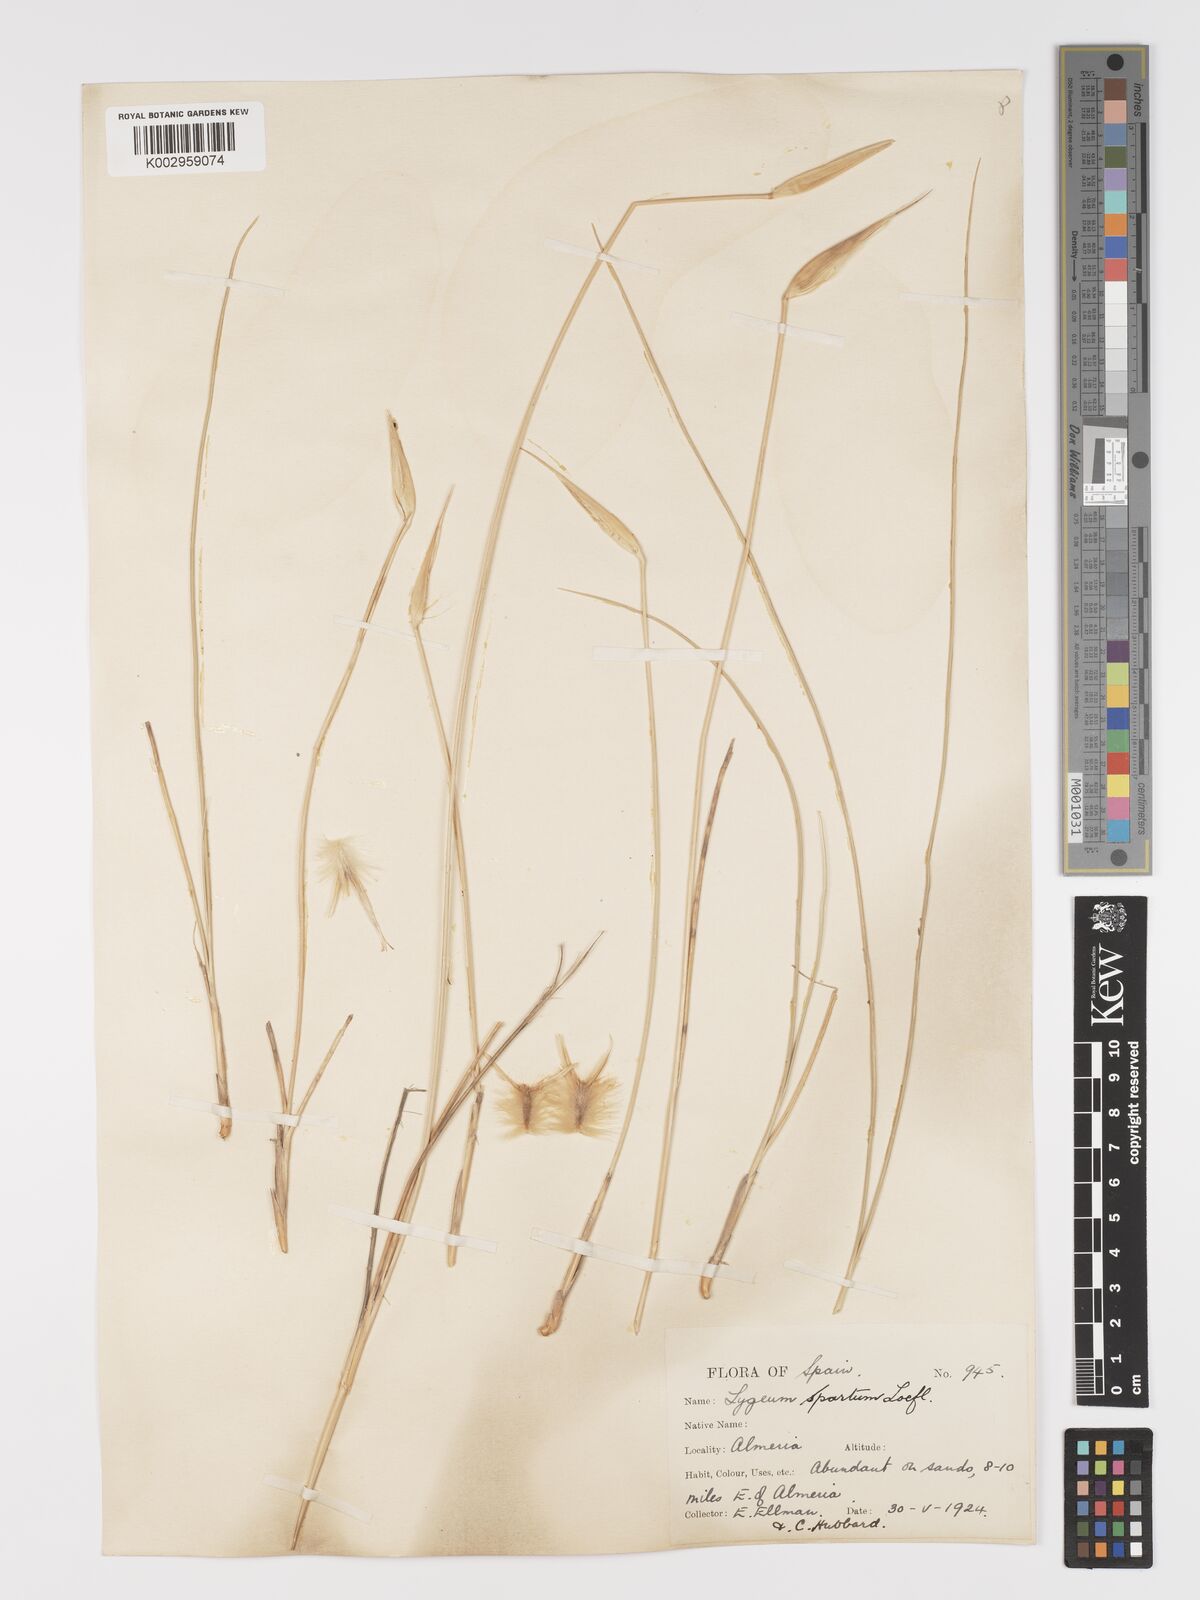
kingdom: Plantae
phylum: Tracheophyta
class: Liliopsida
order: Poales
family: Poaceae
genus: Lygeum
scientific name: Lygeum spartum
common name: Albardine
